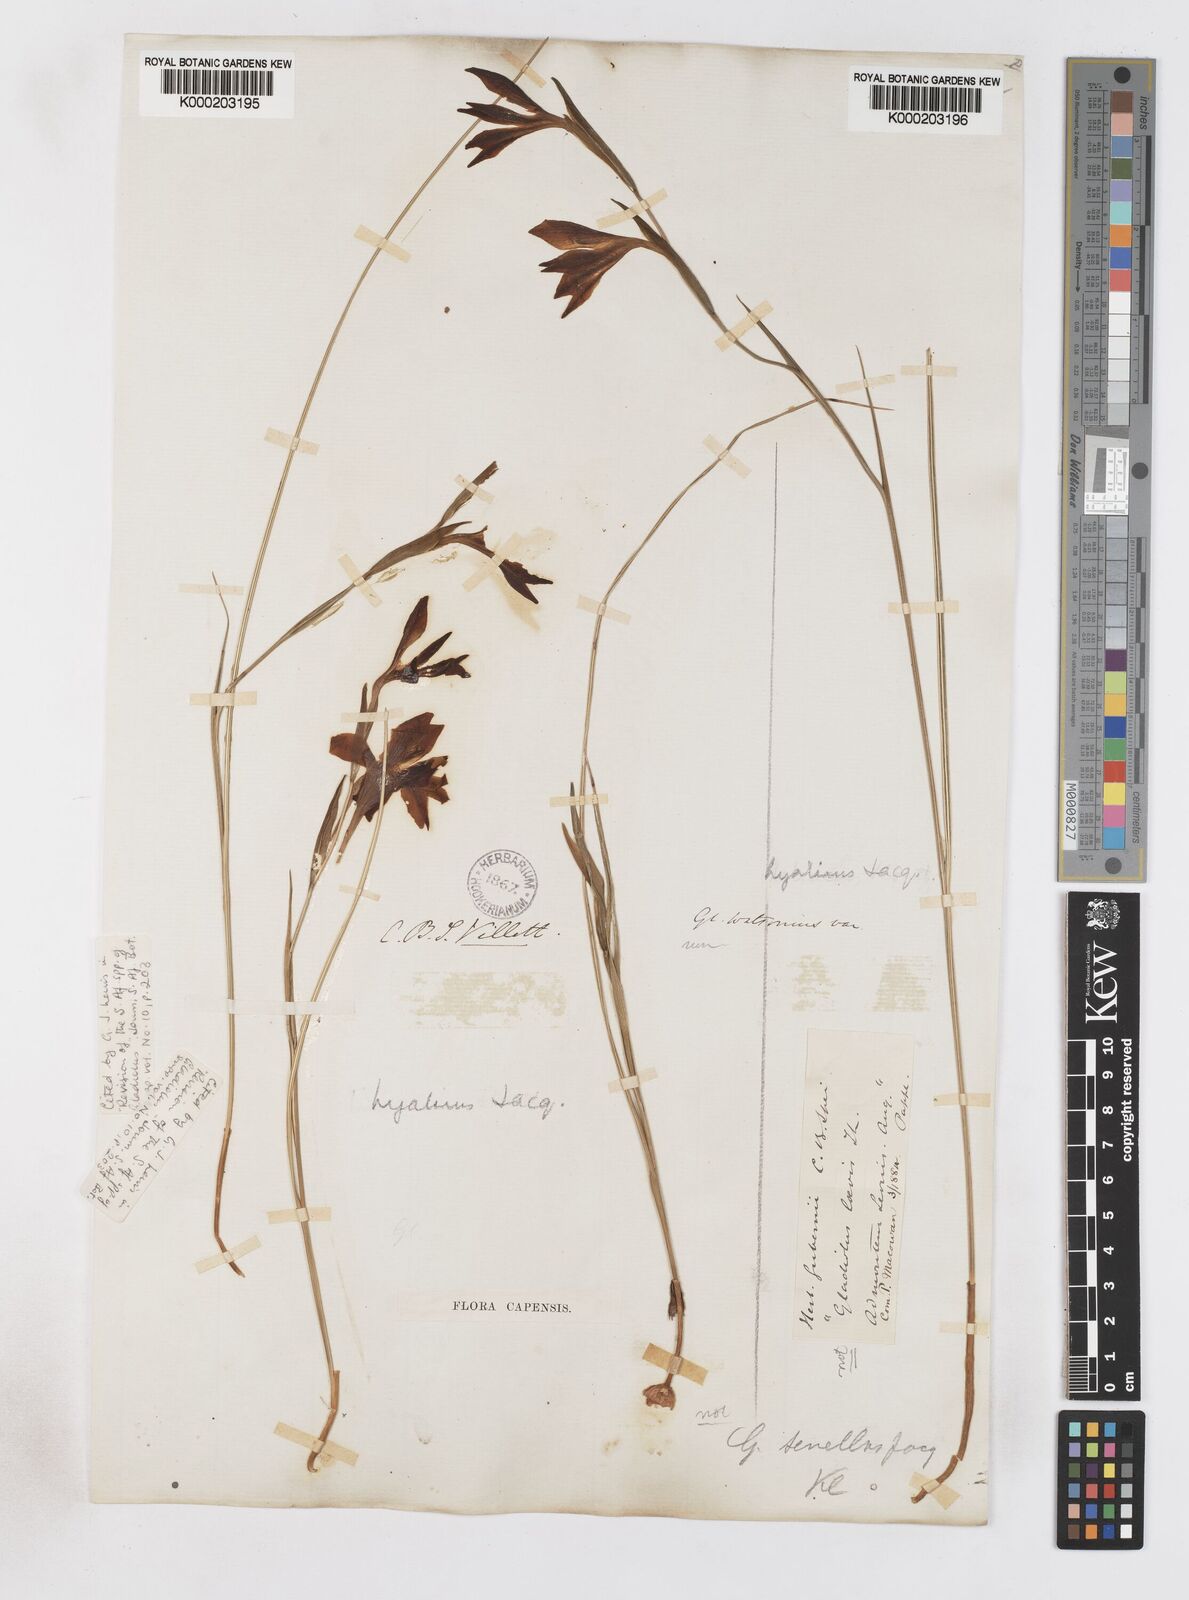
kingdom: Plantae
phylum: Tracheophyta
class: Liliopsida
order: Asparagales
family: Iridaceae
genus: Gladiolus
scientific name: Gladiolus hyalinus
